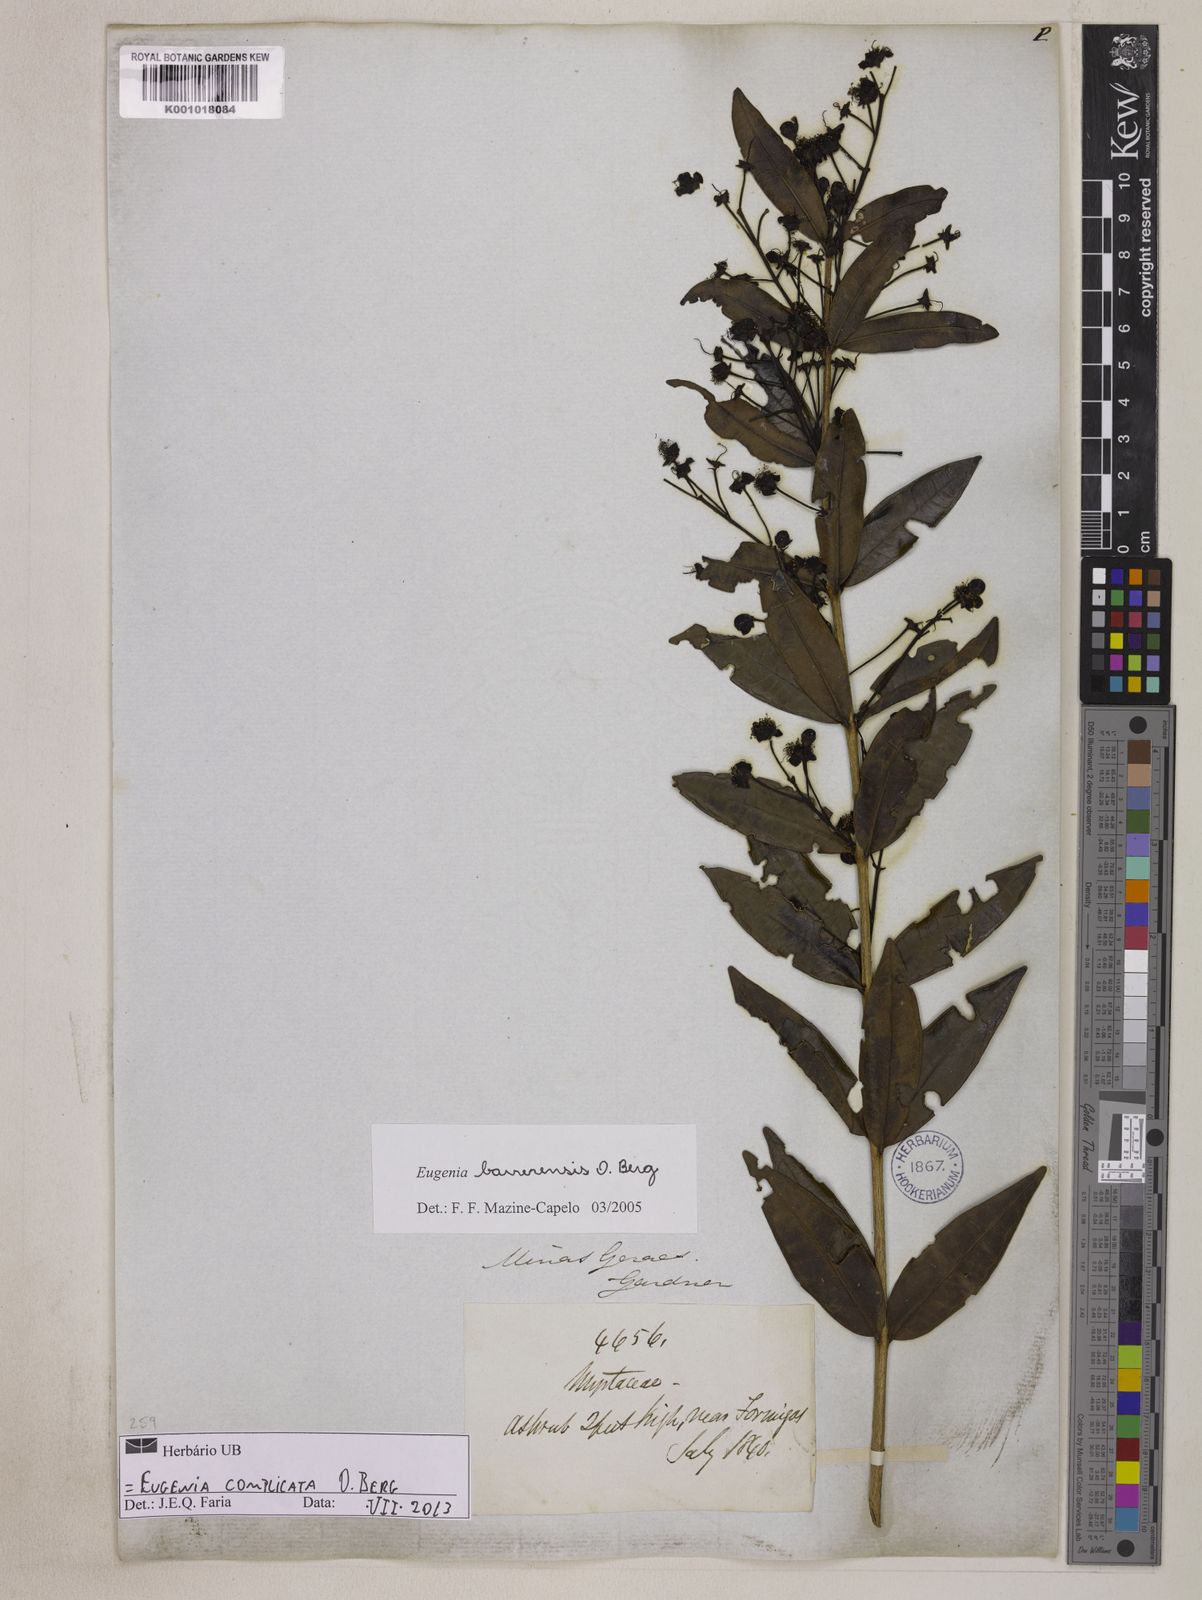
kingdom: Plantae
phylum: Tracheophyta
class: Magnoliopsida
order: Myrtales
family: Myrtaceae
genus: Eugenia
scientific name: Eugenia complicata
